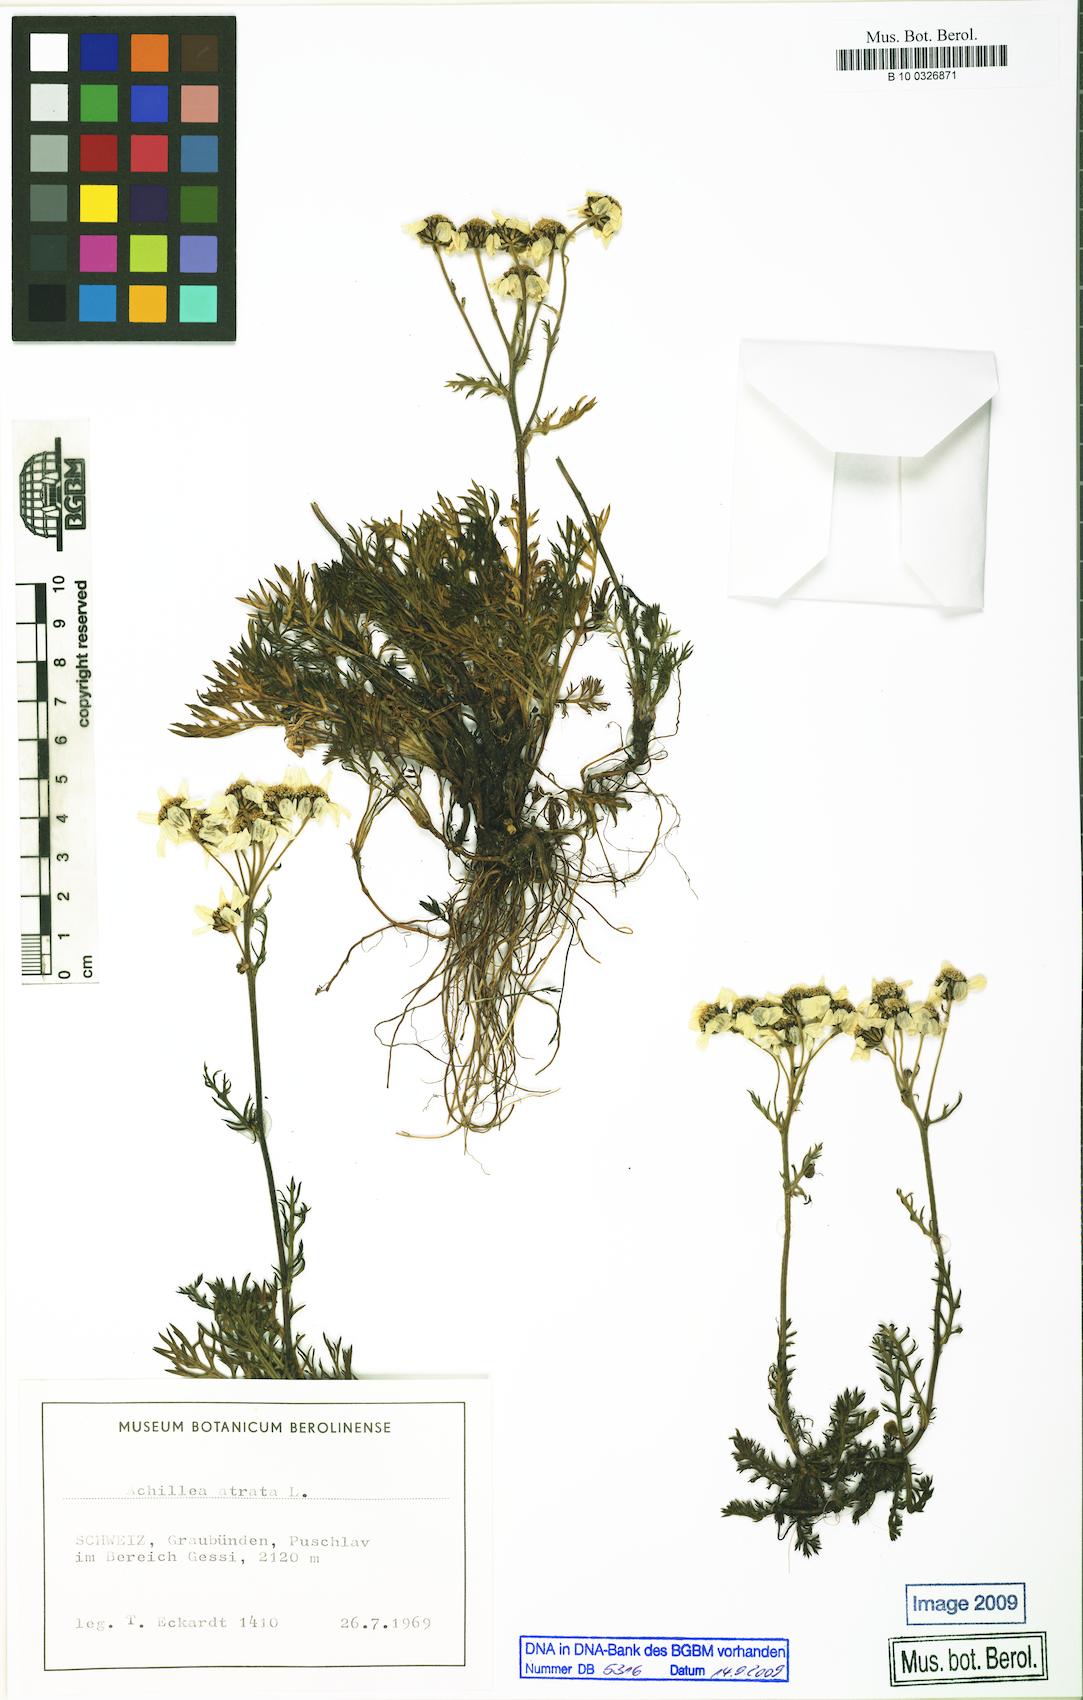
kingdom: Plantae
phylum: Tracheophyta
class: Magnoliopsida
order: Asterales
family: Asteraceae
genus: Achillea
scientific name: Achillea atrata
